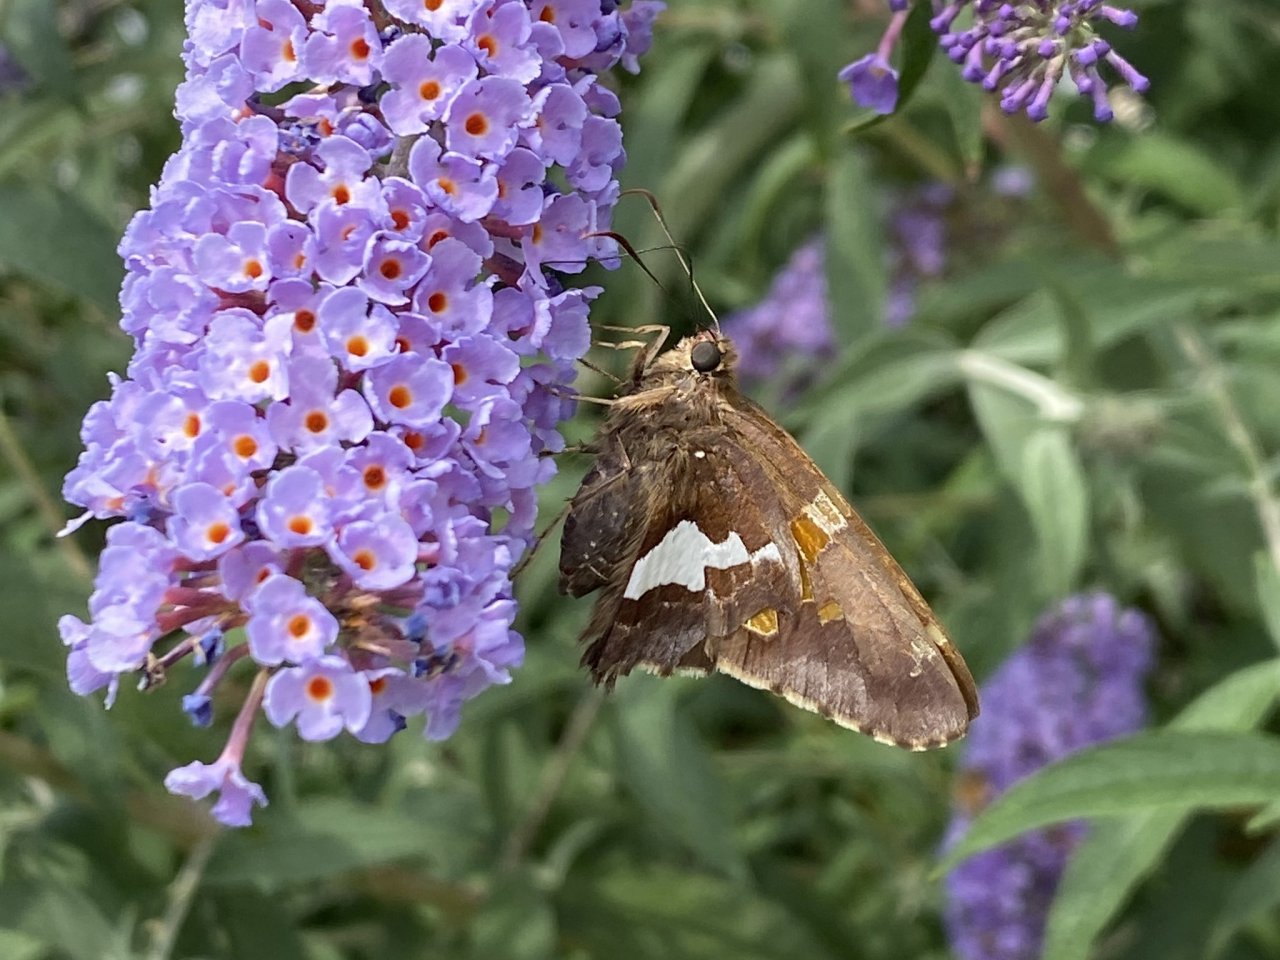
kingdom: Animalia
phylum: Arthropoda
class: Insecta
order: Lepidoptera
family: Hesperiidae
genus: Epargyreus
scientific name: Epargyreus clarus
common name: Silver-spotted Skipper
